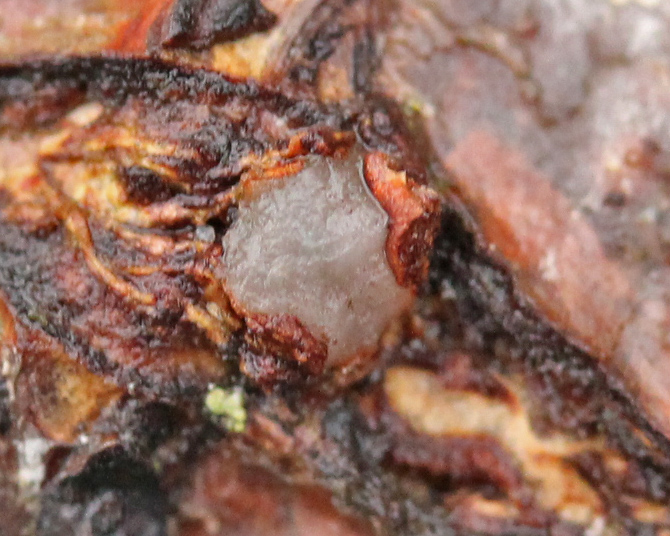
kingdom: Fungi
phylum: Basidiomycota
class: Pucciniomycetes
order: Platygloeales
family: Platygloeaceae
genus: Platygloea
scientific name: Platygloea disciformis
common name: linde-slimklat
